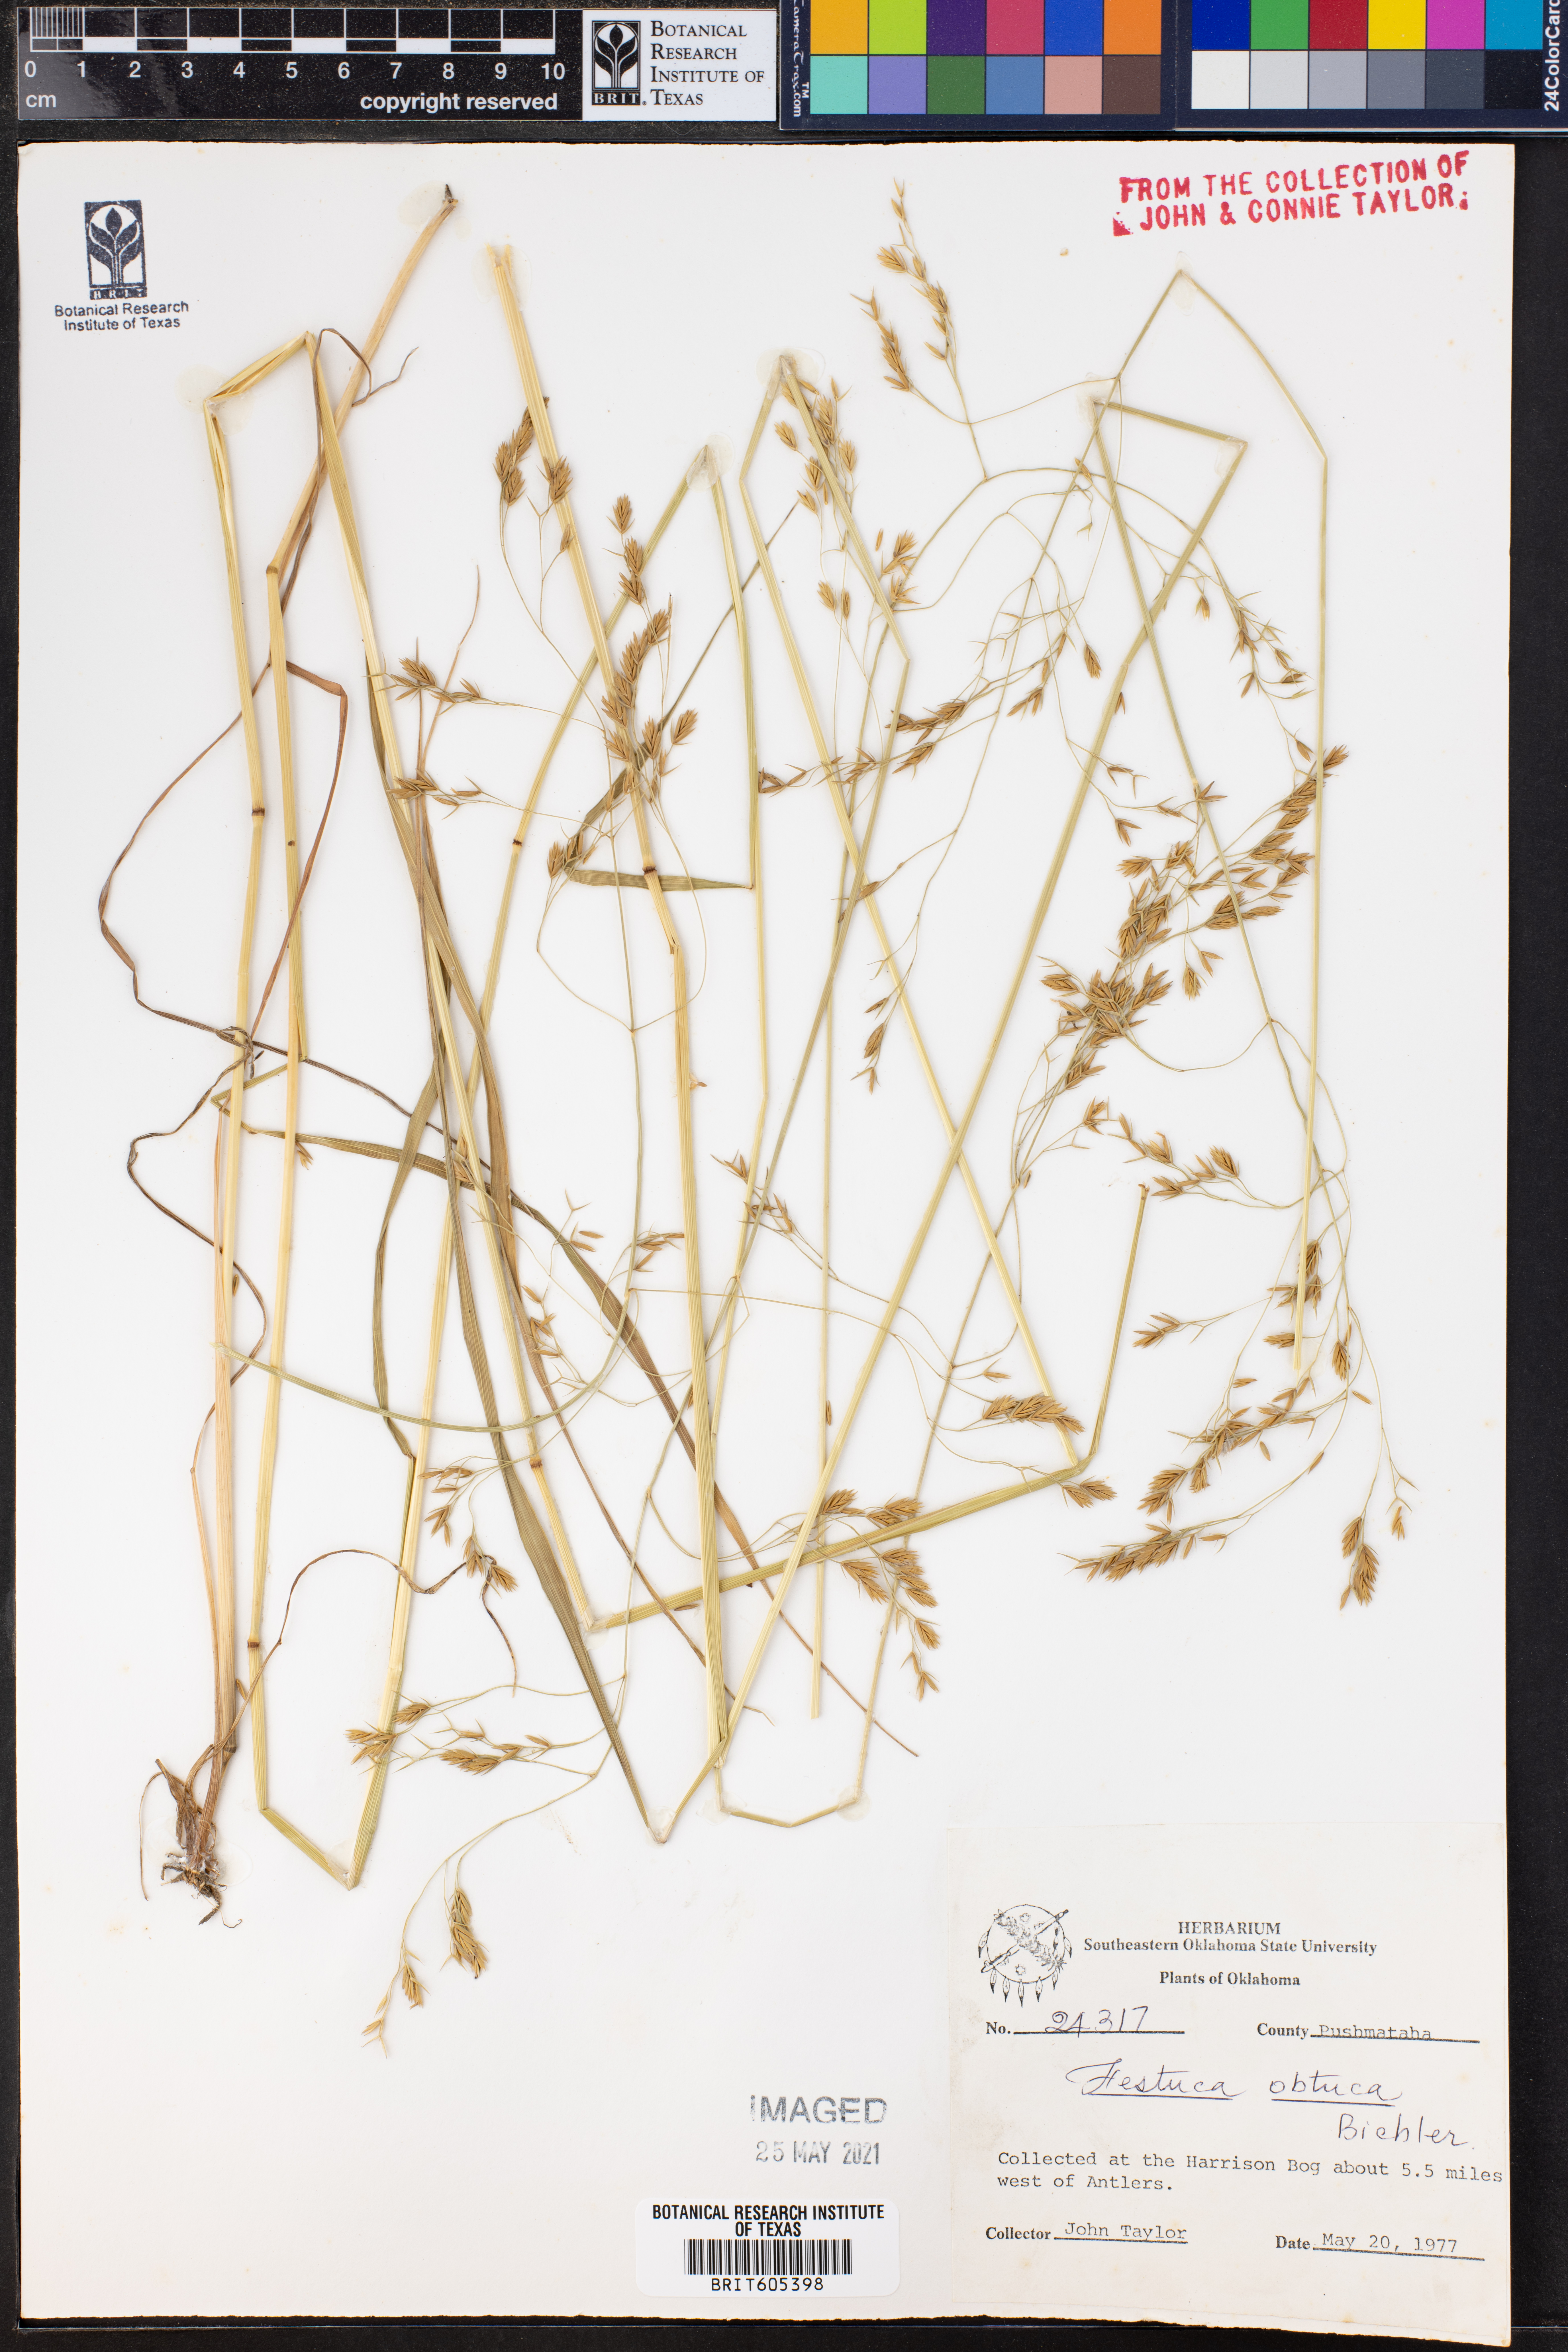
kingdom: Plantae
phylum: Tracheophyta
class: Liliopsida
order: Poales
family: Poaceae
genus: Festuca
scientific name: Festuca subverticillata
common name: Nodding fescue
